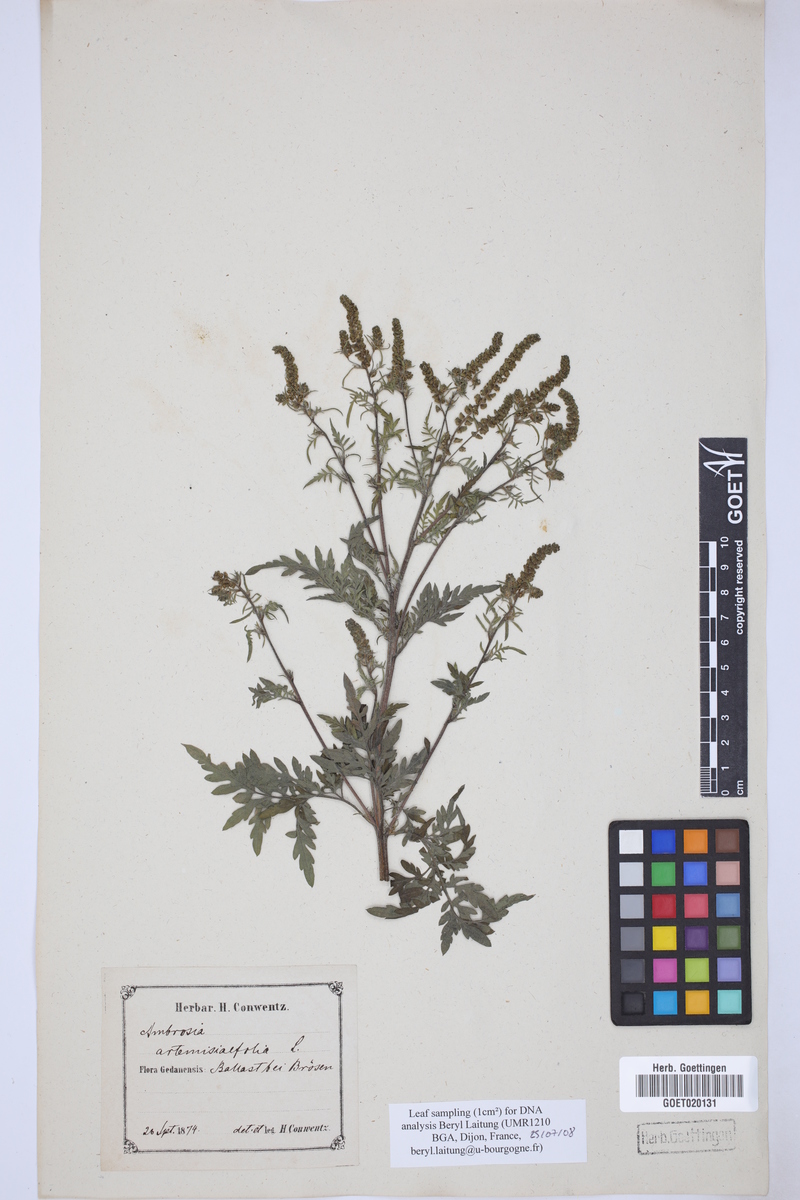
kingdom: Plantae
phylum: Tracheophyta
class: Magnoliopsida
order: Asterales
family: Asteraceae
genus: Ambrosia
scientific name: Ambrosia artemisiifolia
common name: Annual ragweed
